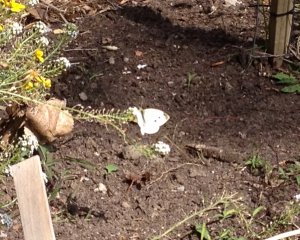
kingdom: Animalia
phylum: Arthropoda
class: Insecta
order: Lepidoptera
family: Pieridae
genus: Pieris
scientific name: Pieris rapae
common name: Cabbage White
